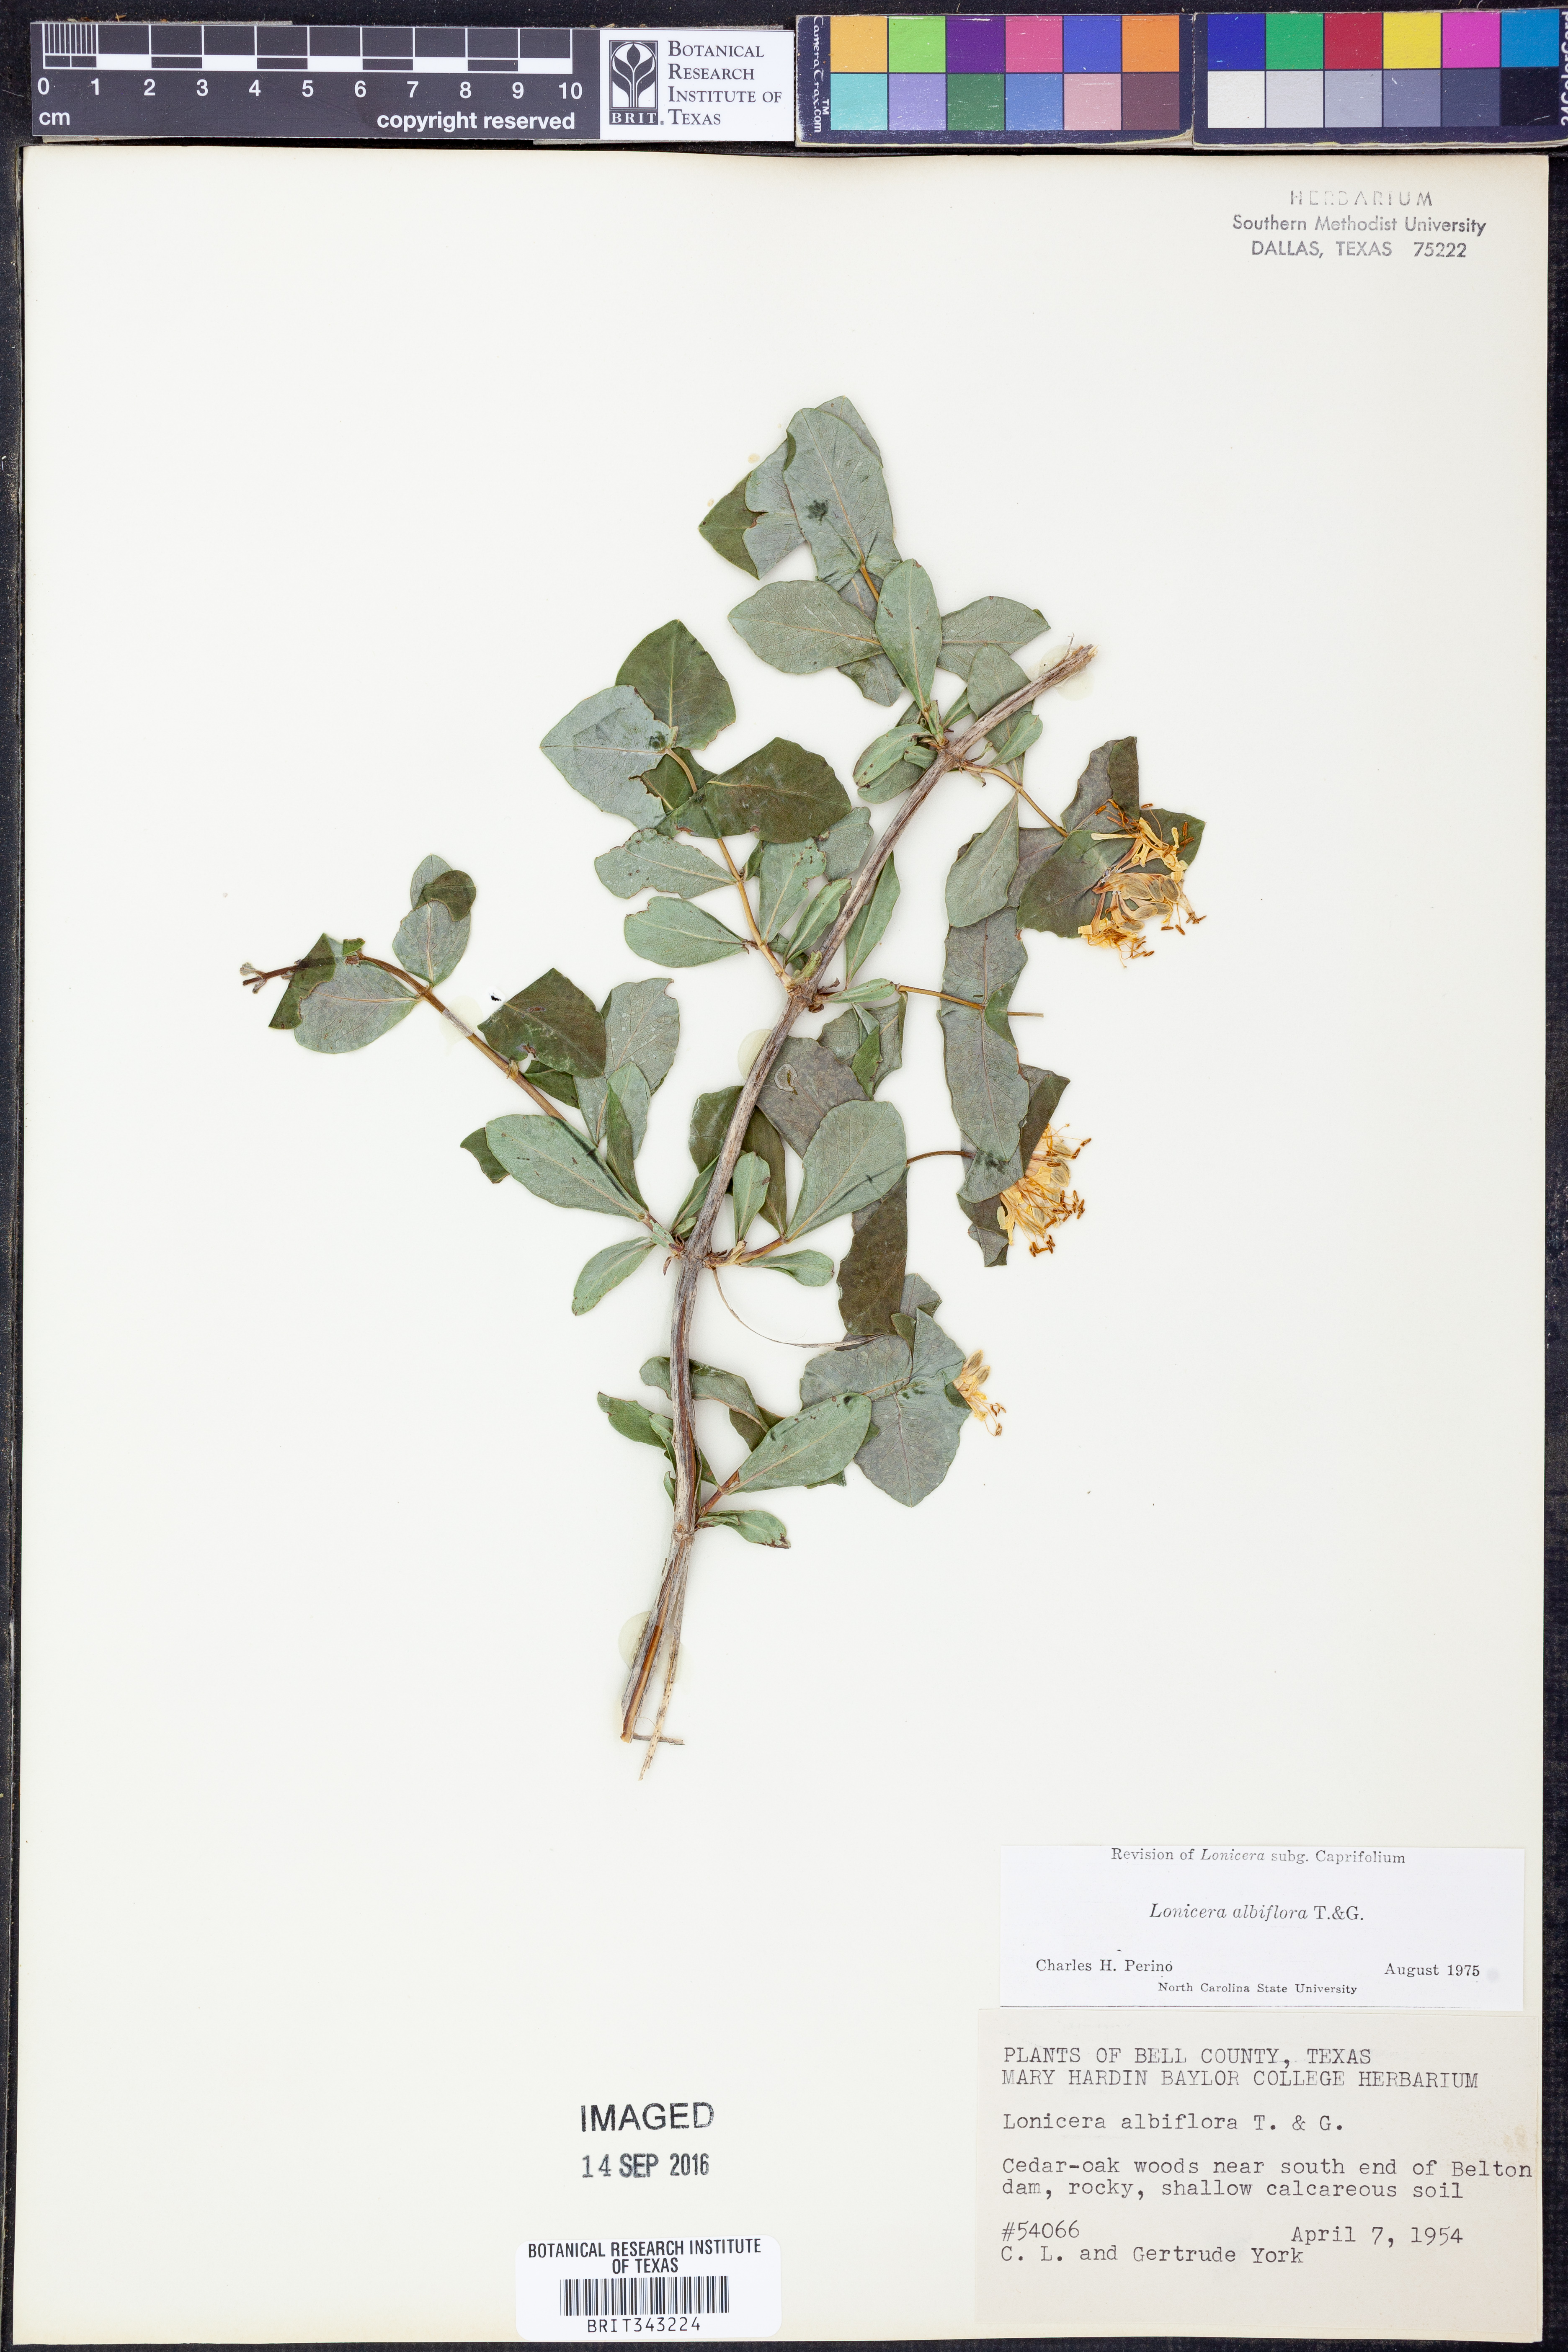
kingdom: Plantae
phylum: Tracheophyta
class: Magnoliopsida
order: Dipsacales
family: Caprifoliaceae
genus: Lonicera
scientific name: Lonicera albiflora
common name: White honeysuckle
